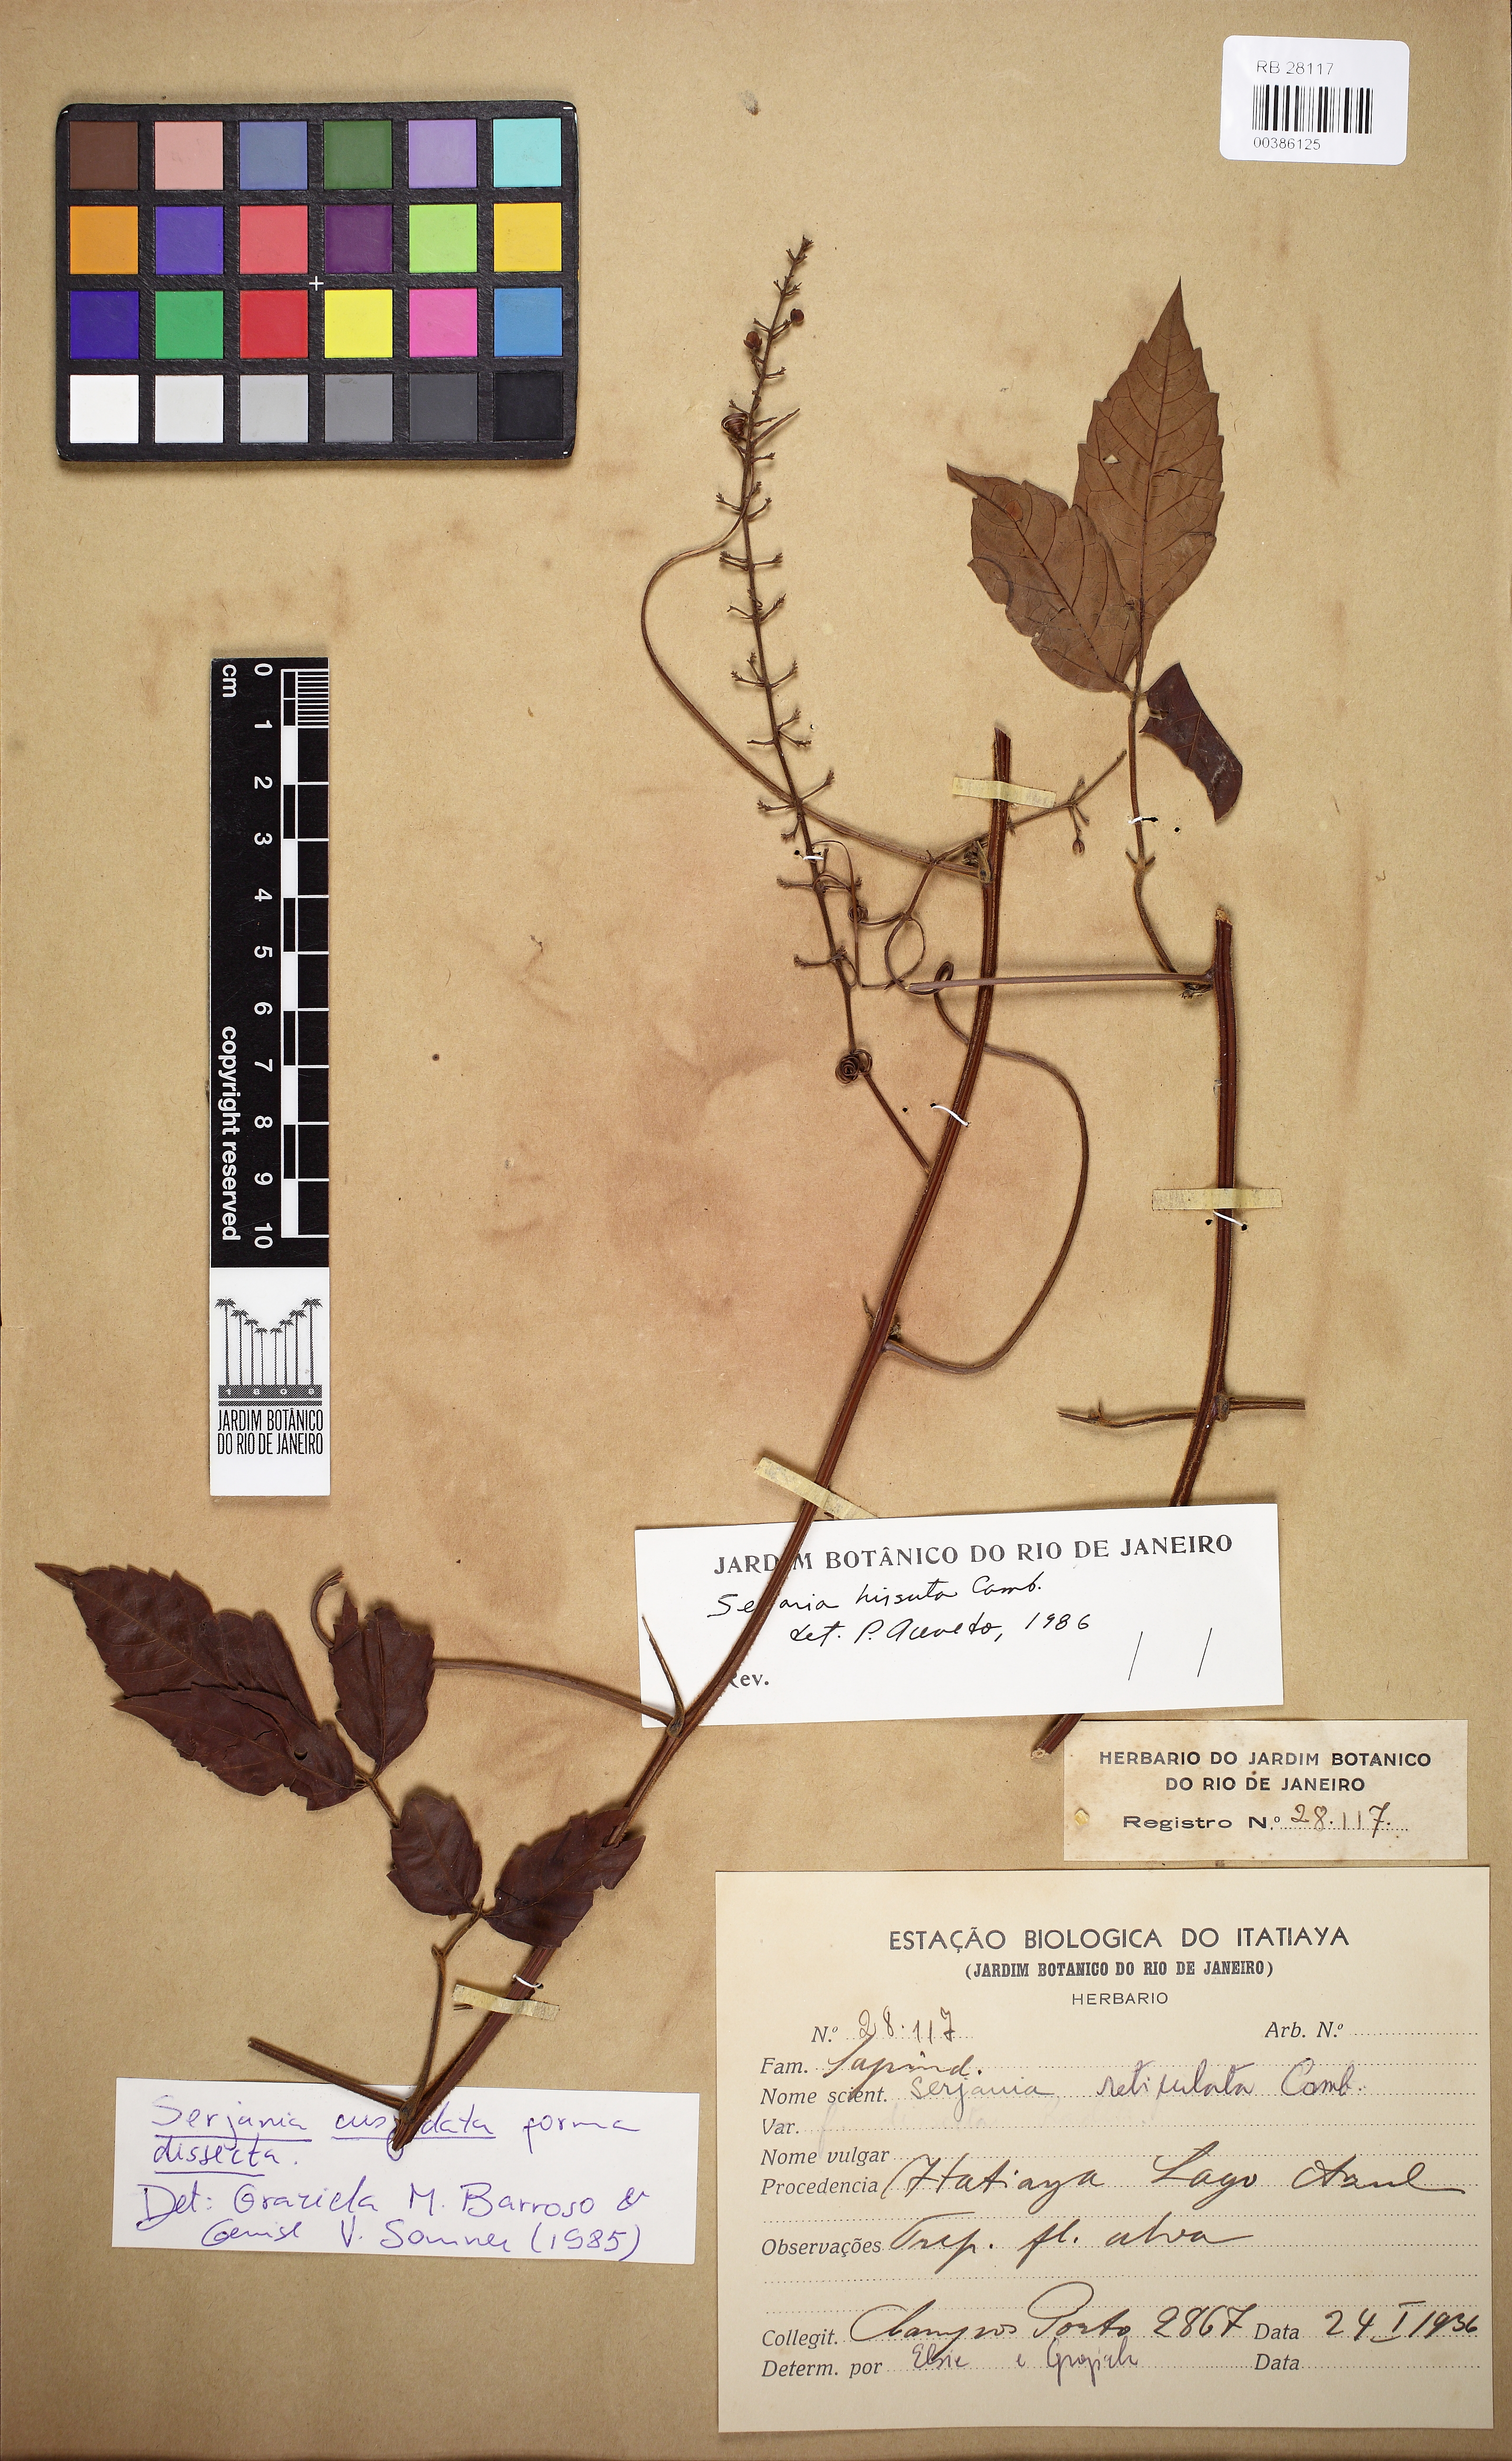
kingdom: Plantae
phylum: Tracheophyta
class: Magnoliopsida
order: Sapindales
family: Sapindaceae
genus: Serjania
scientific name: Serjania reticulata
